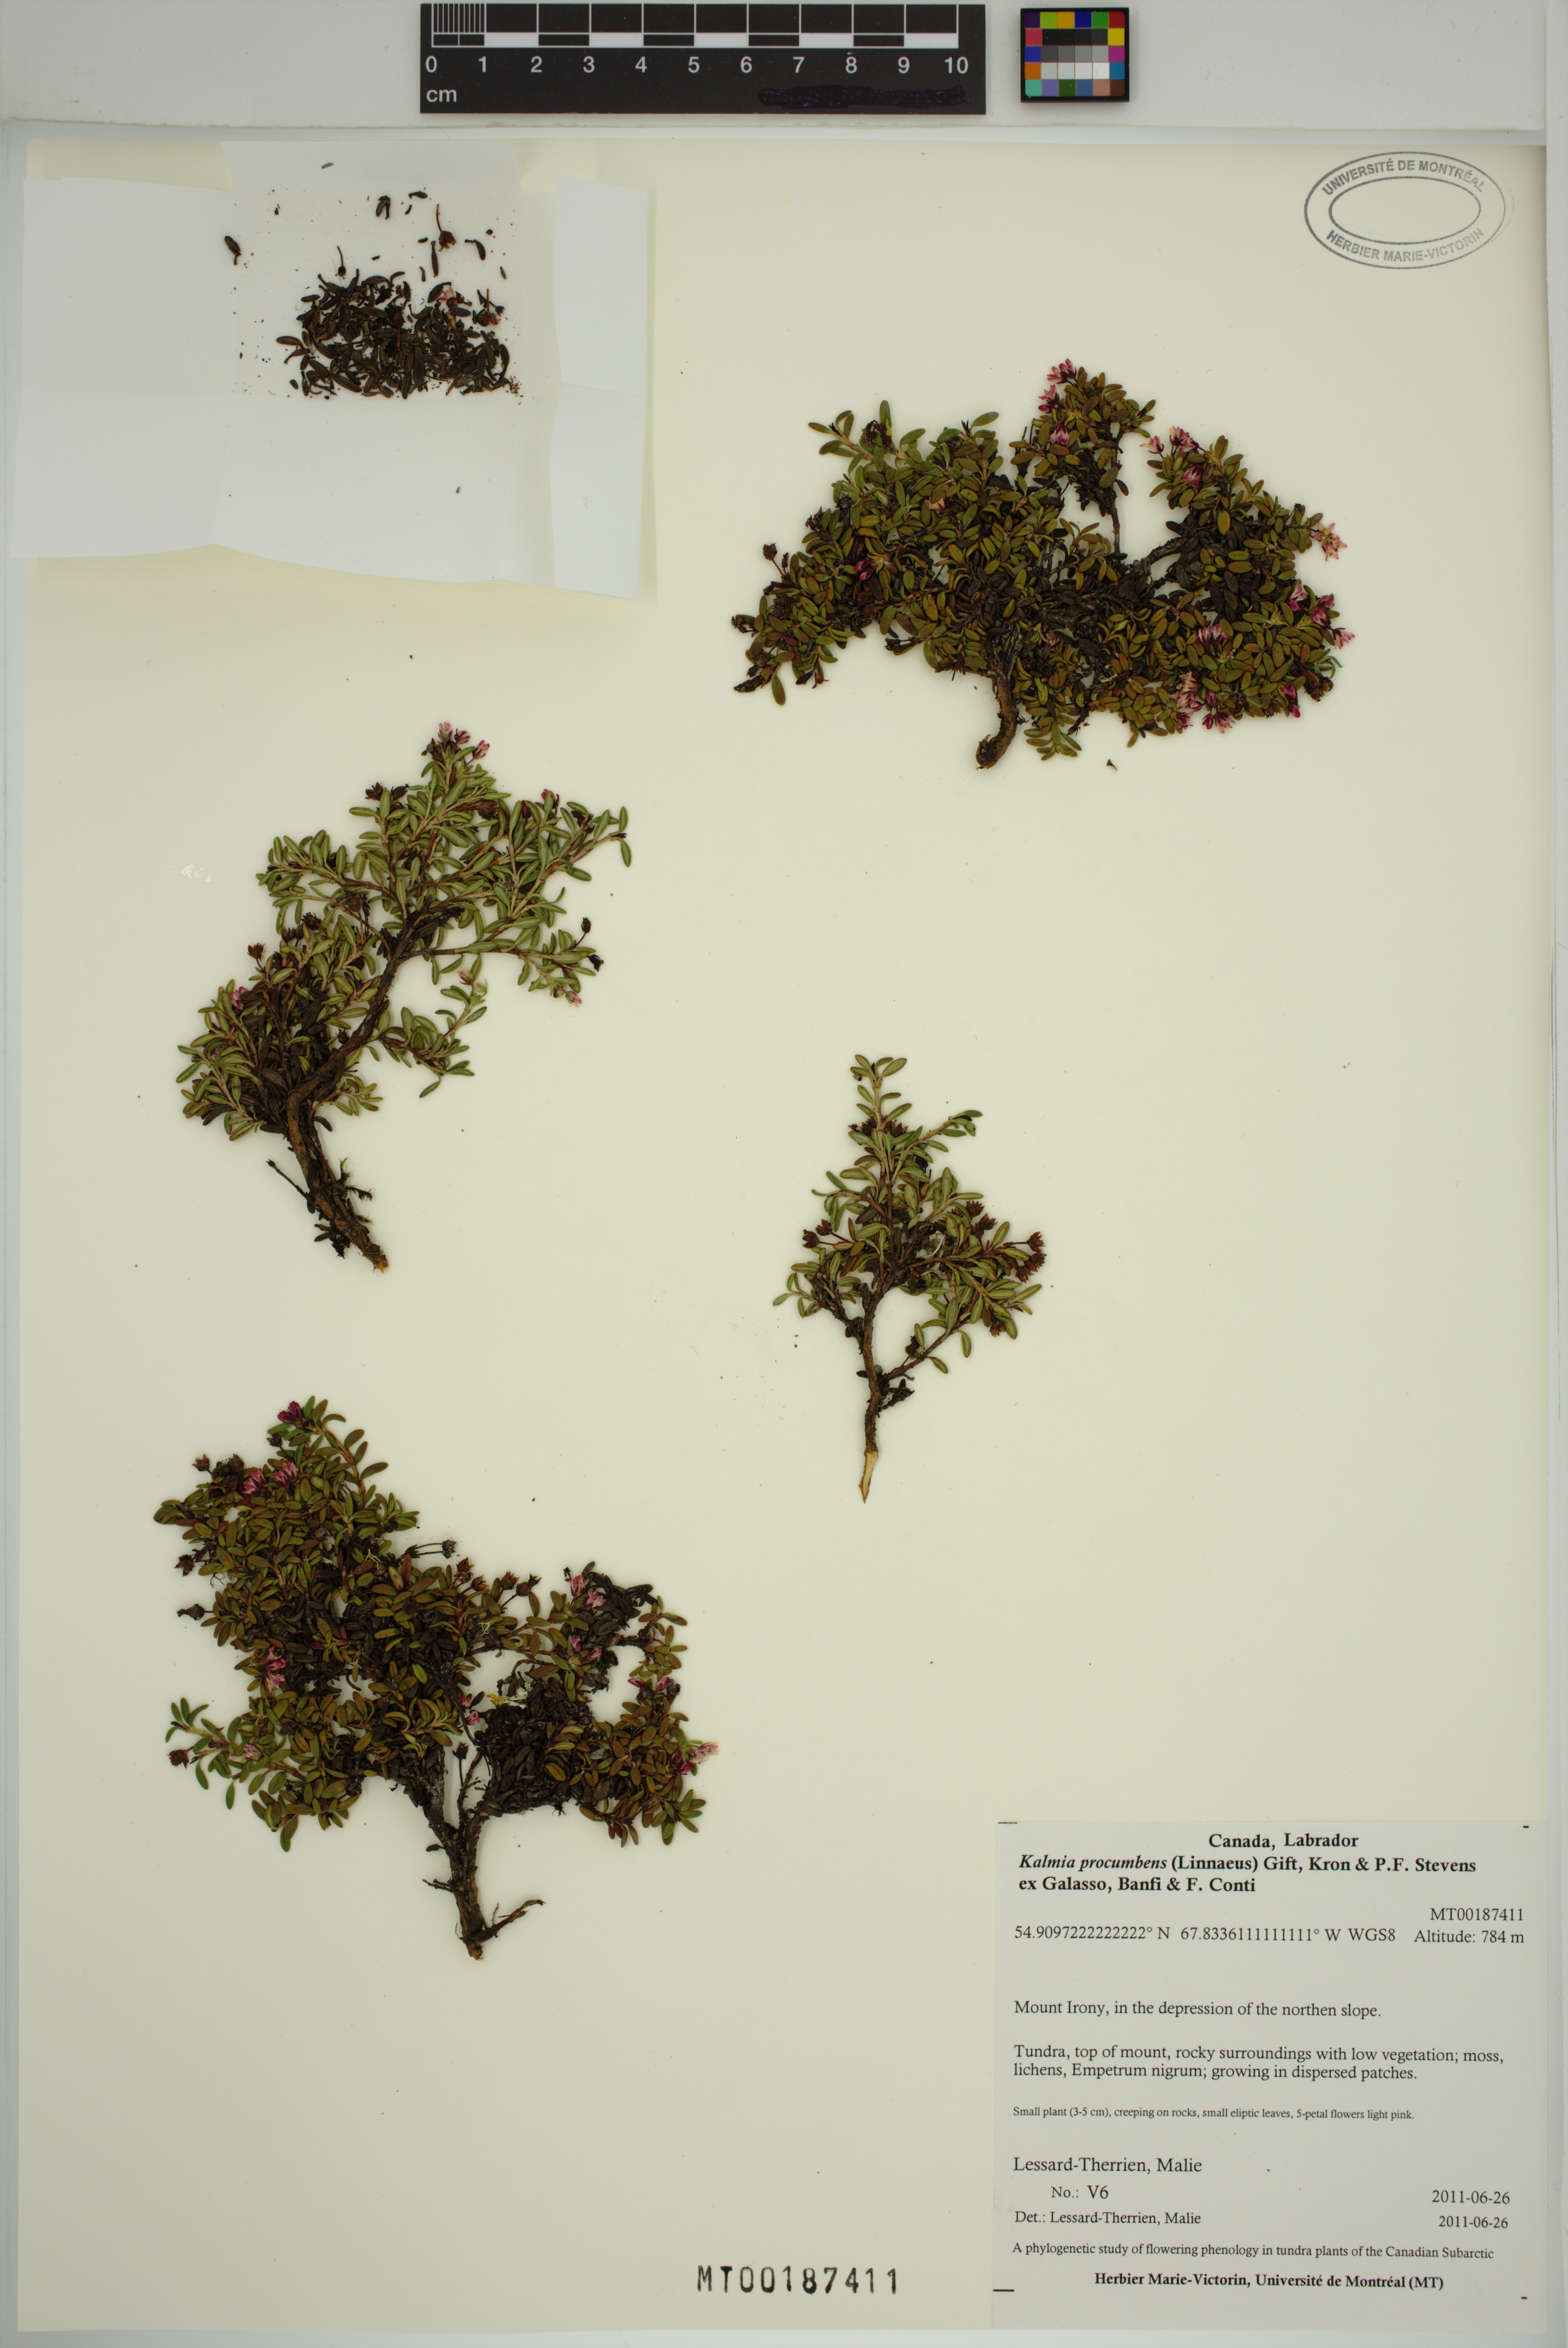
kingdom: Plantae
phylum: Tracheophyta
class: Magnoliopsida
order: Ericales
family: Ericaceae
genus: Kalmia
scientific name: Kalmia procumbens
